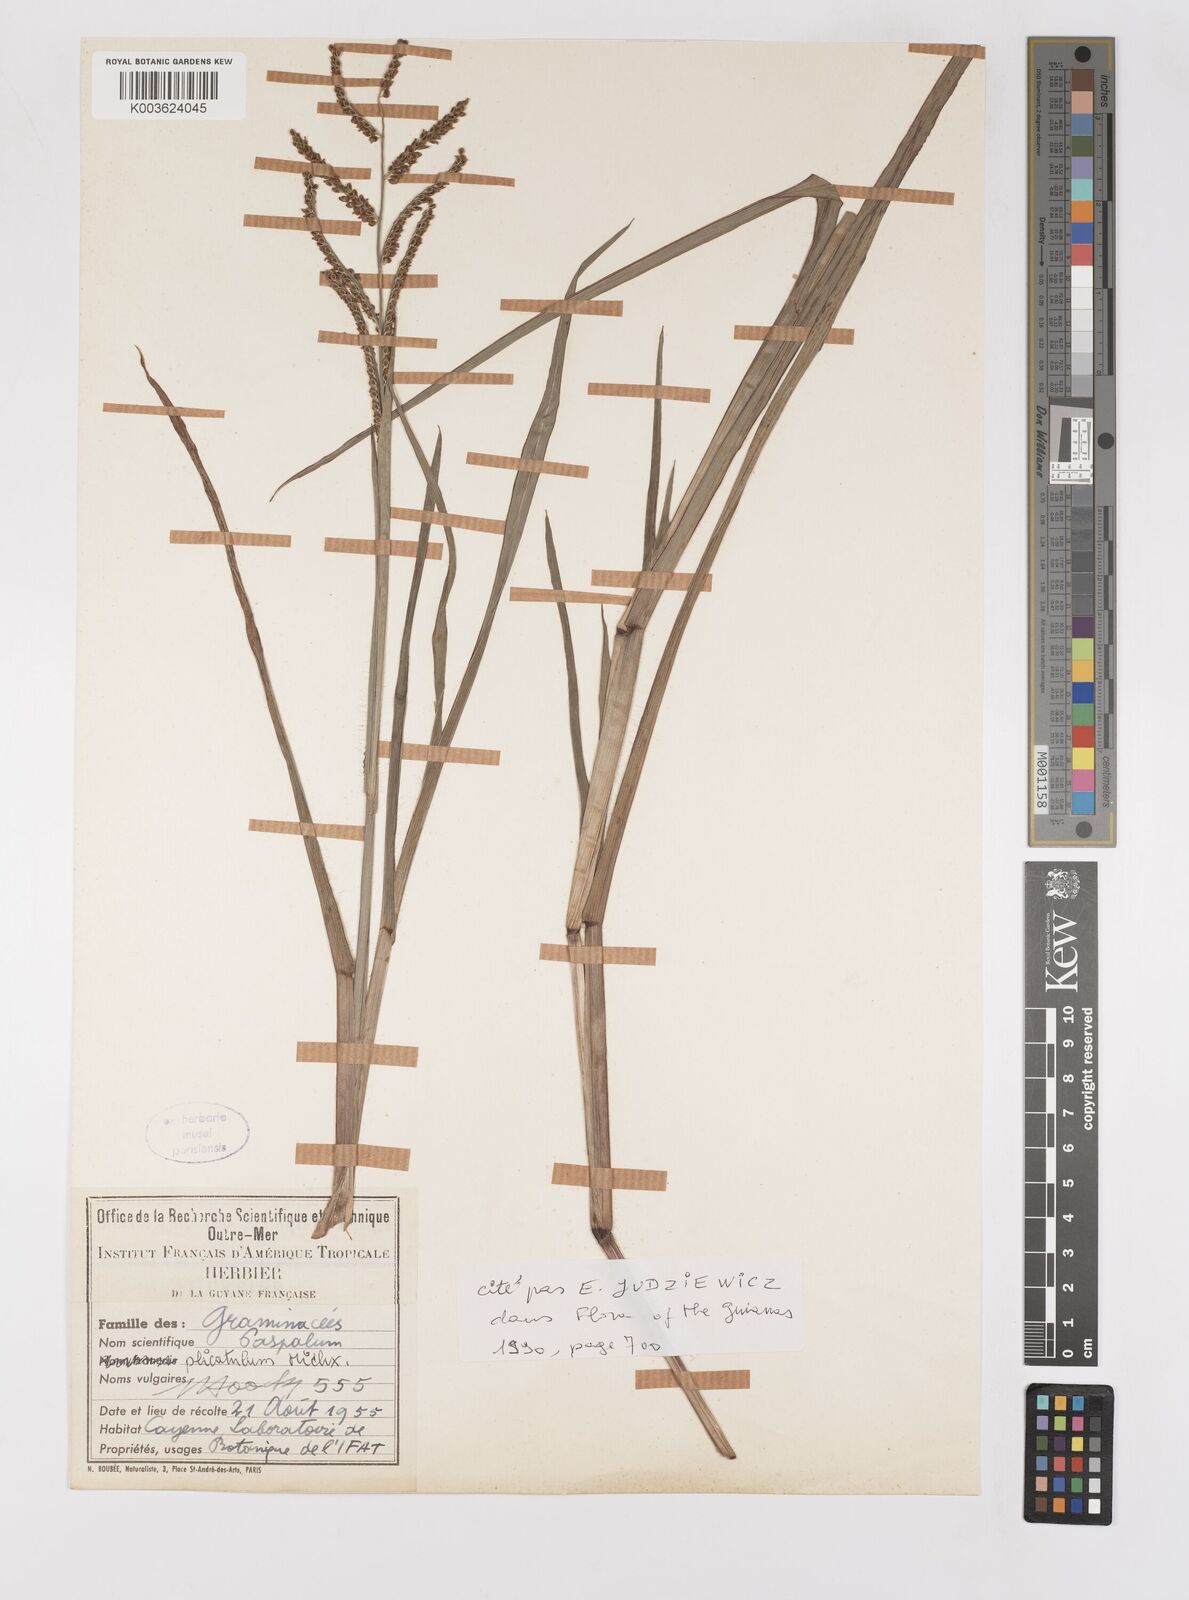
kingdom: Plantae
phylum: Tracheophyta
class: Liliopsida
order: Poales
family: Poaceae
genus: Paspalum
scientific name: Paspalum plicatulum
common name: Top paspalum
